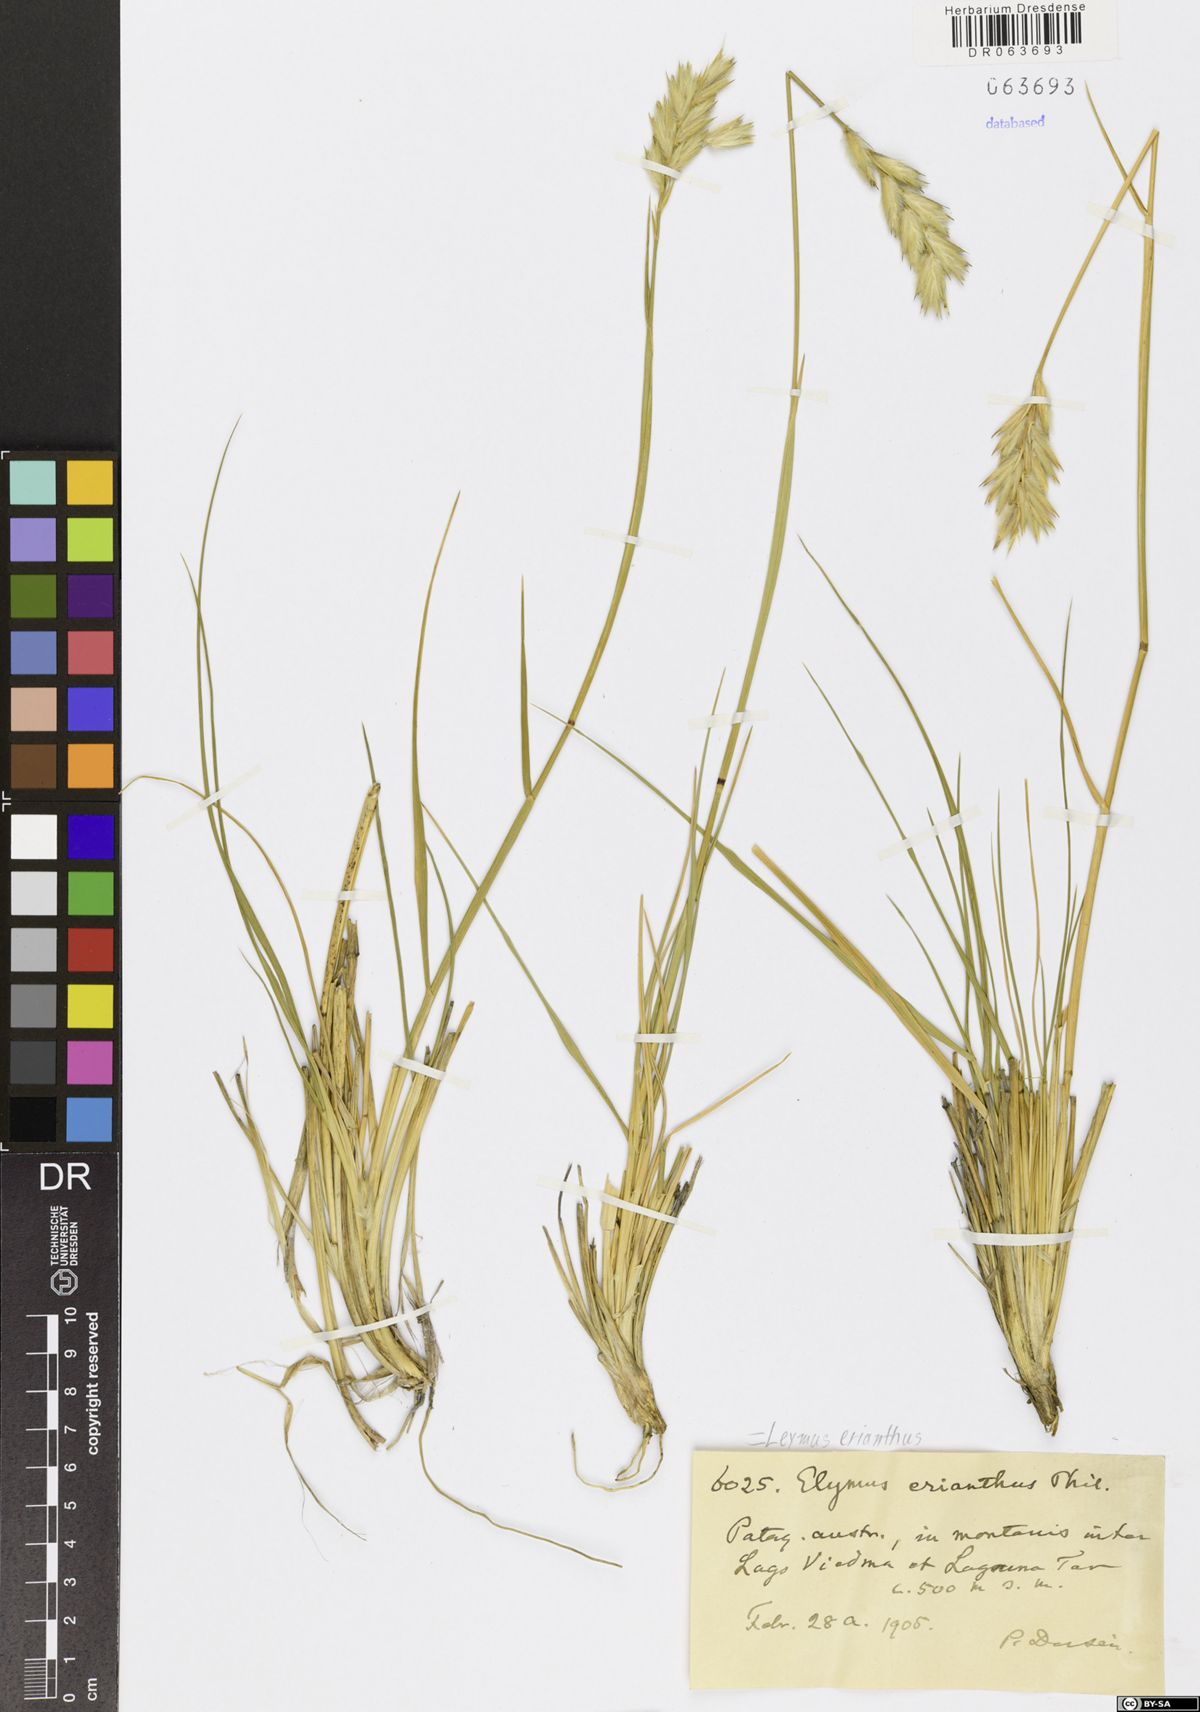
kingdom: Plantae
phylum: Tracheophyta
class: Liliopsida
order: Poales
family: Poaceae
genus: Leymus
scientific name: Leymus erianthus
